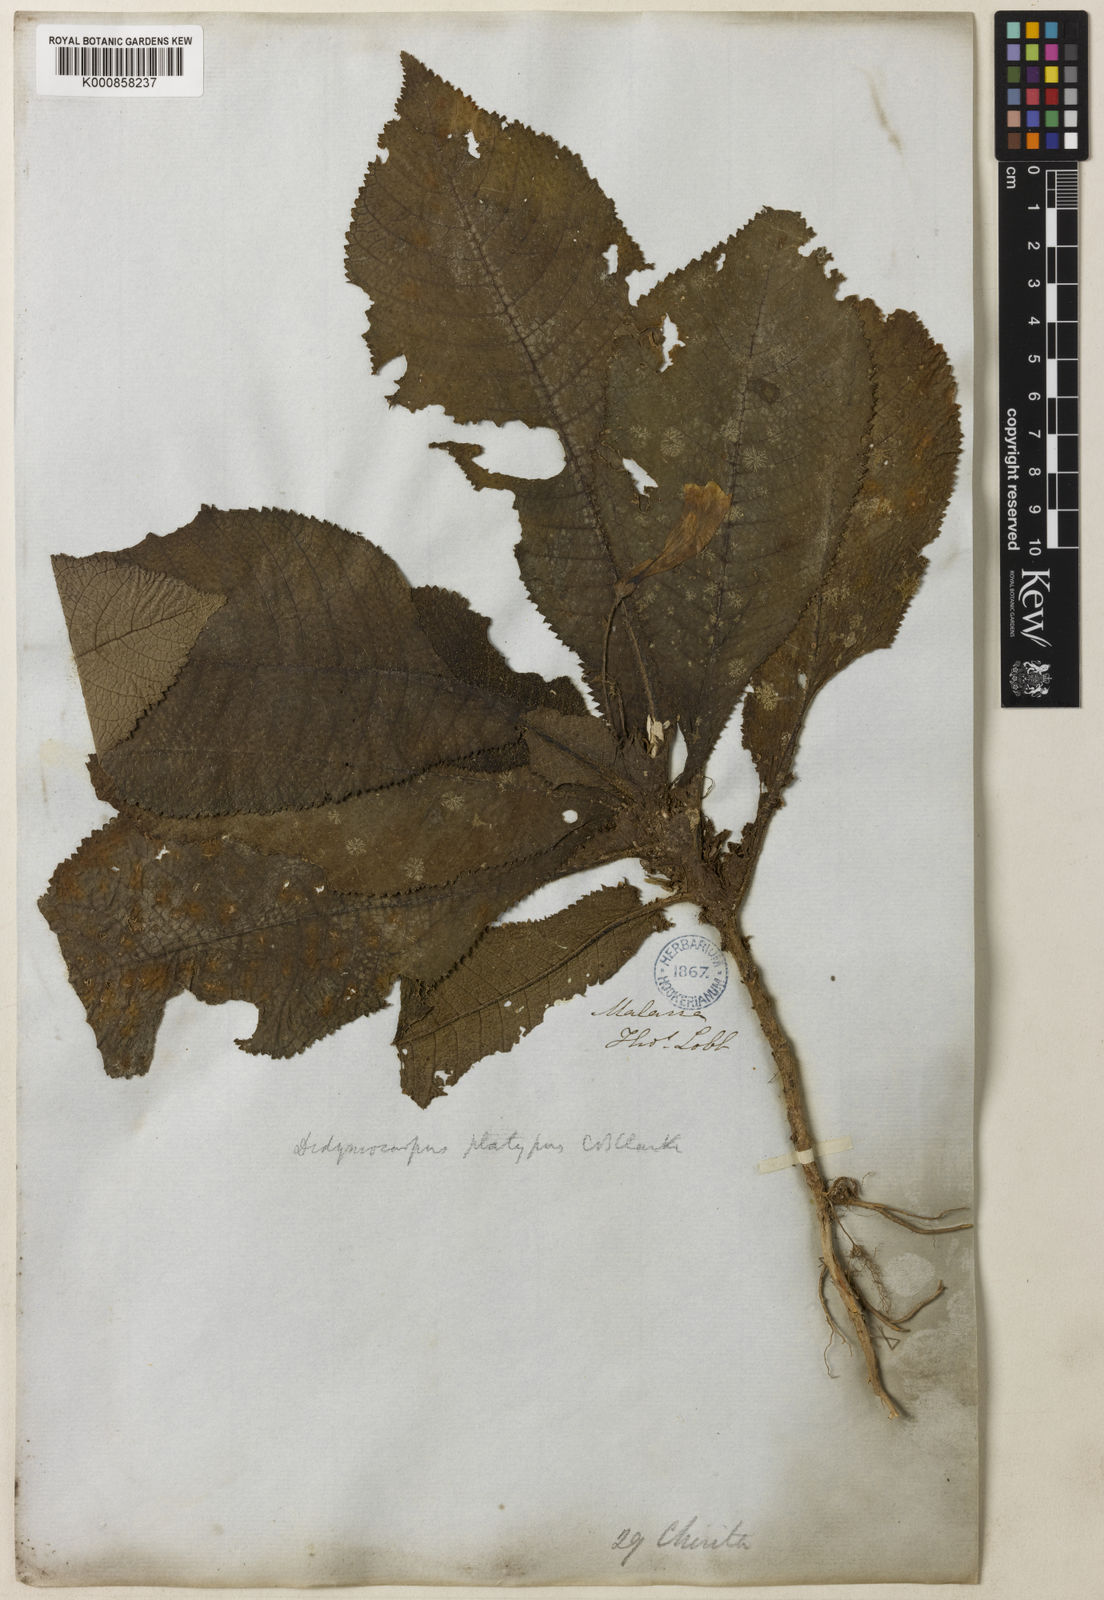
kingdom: Plantae
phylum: Tracheophyta
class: Magnoliopsida
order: Lamiales
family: Gesneriaceae
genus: Codonoboea
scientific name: Codonoboea platypus
